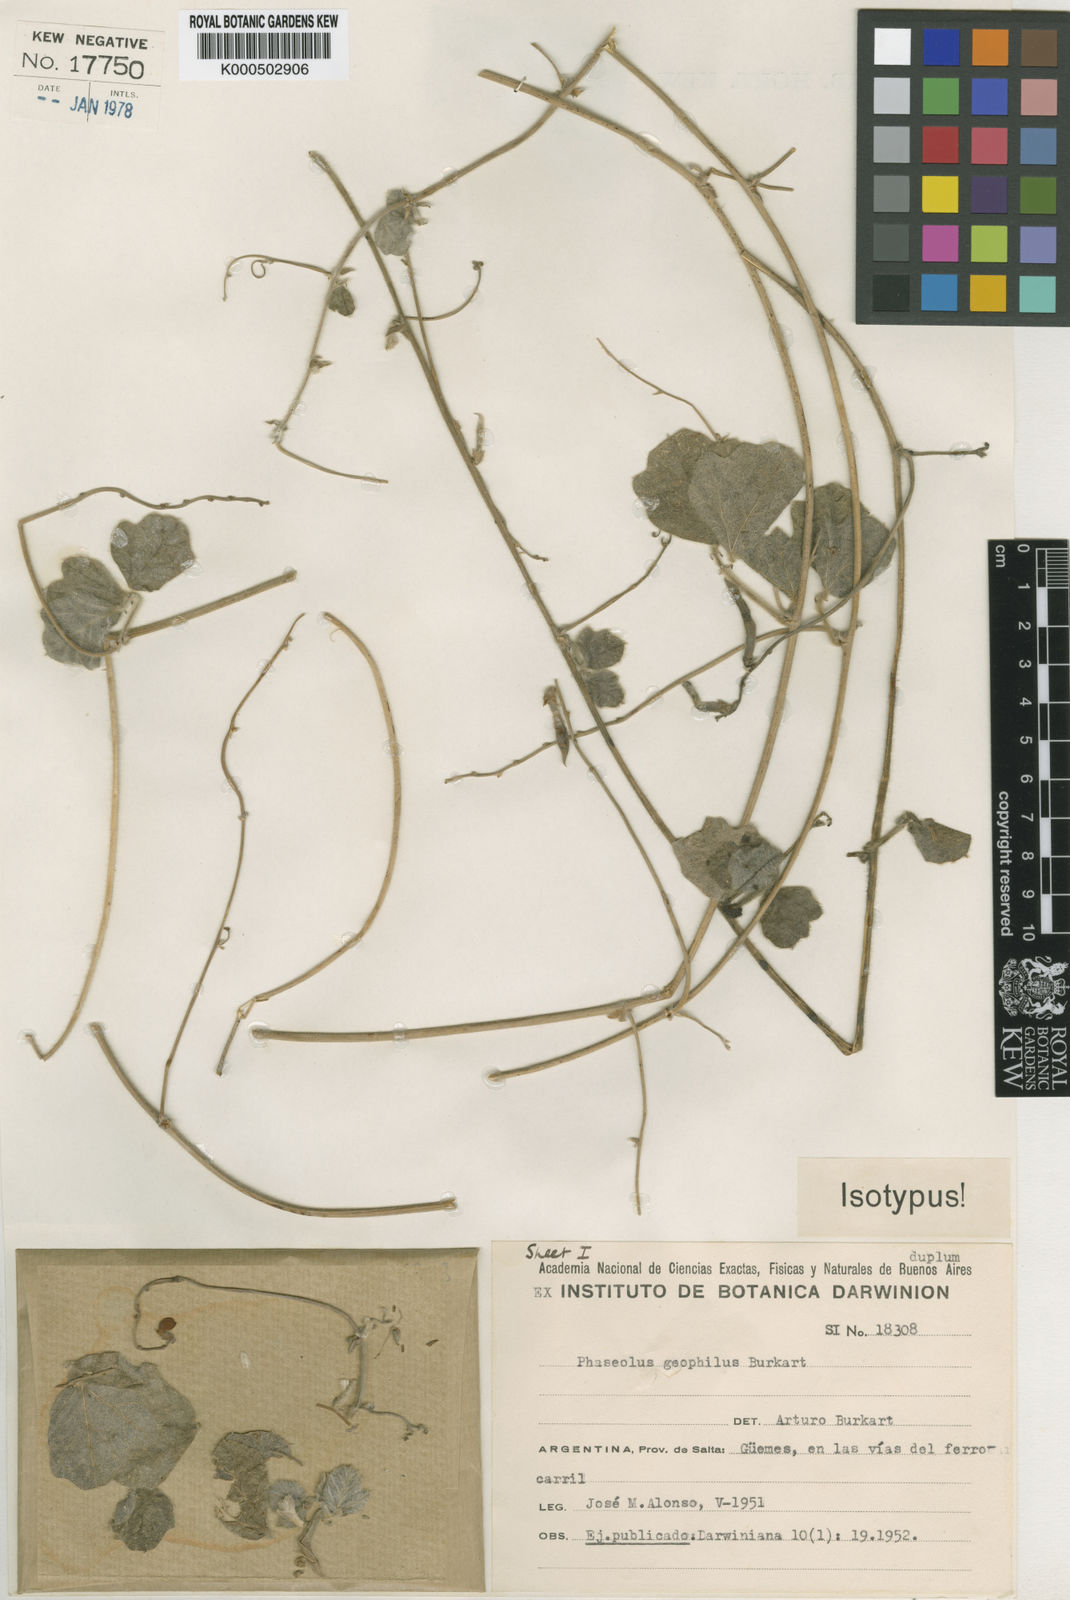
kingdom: Plantae
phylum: Tracheophyta
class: Magnoliopsida
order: Fabales
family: Fabaceae
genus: Macroptilium
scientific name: Macroptilium
